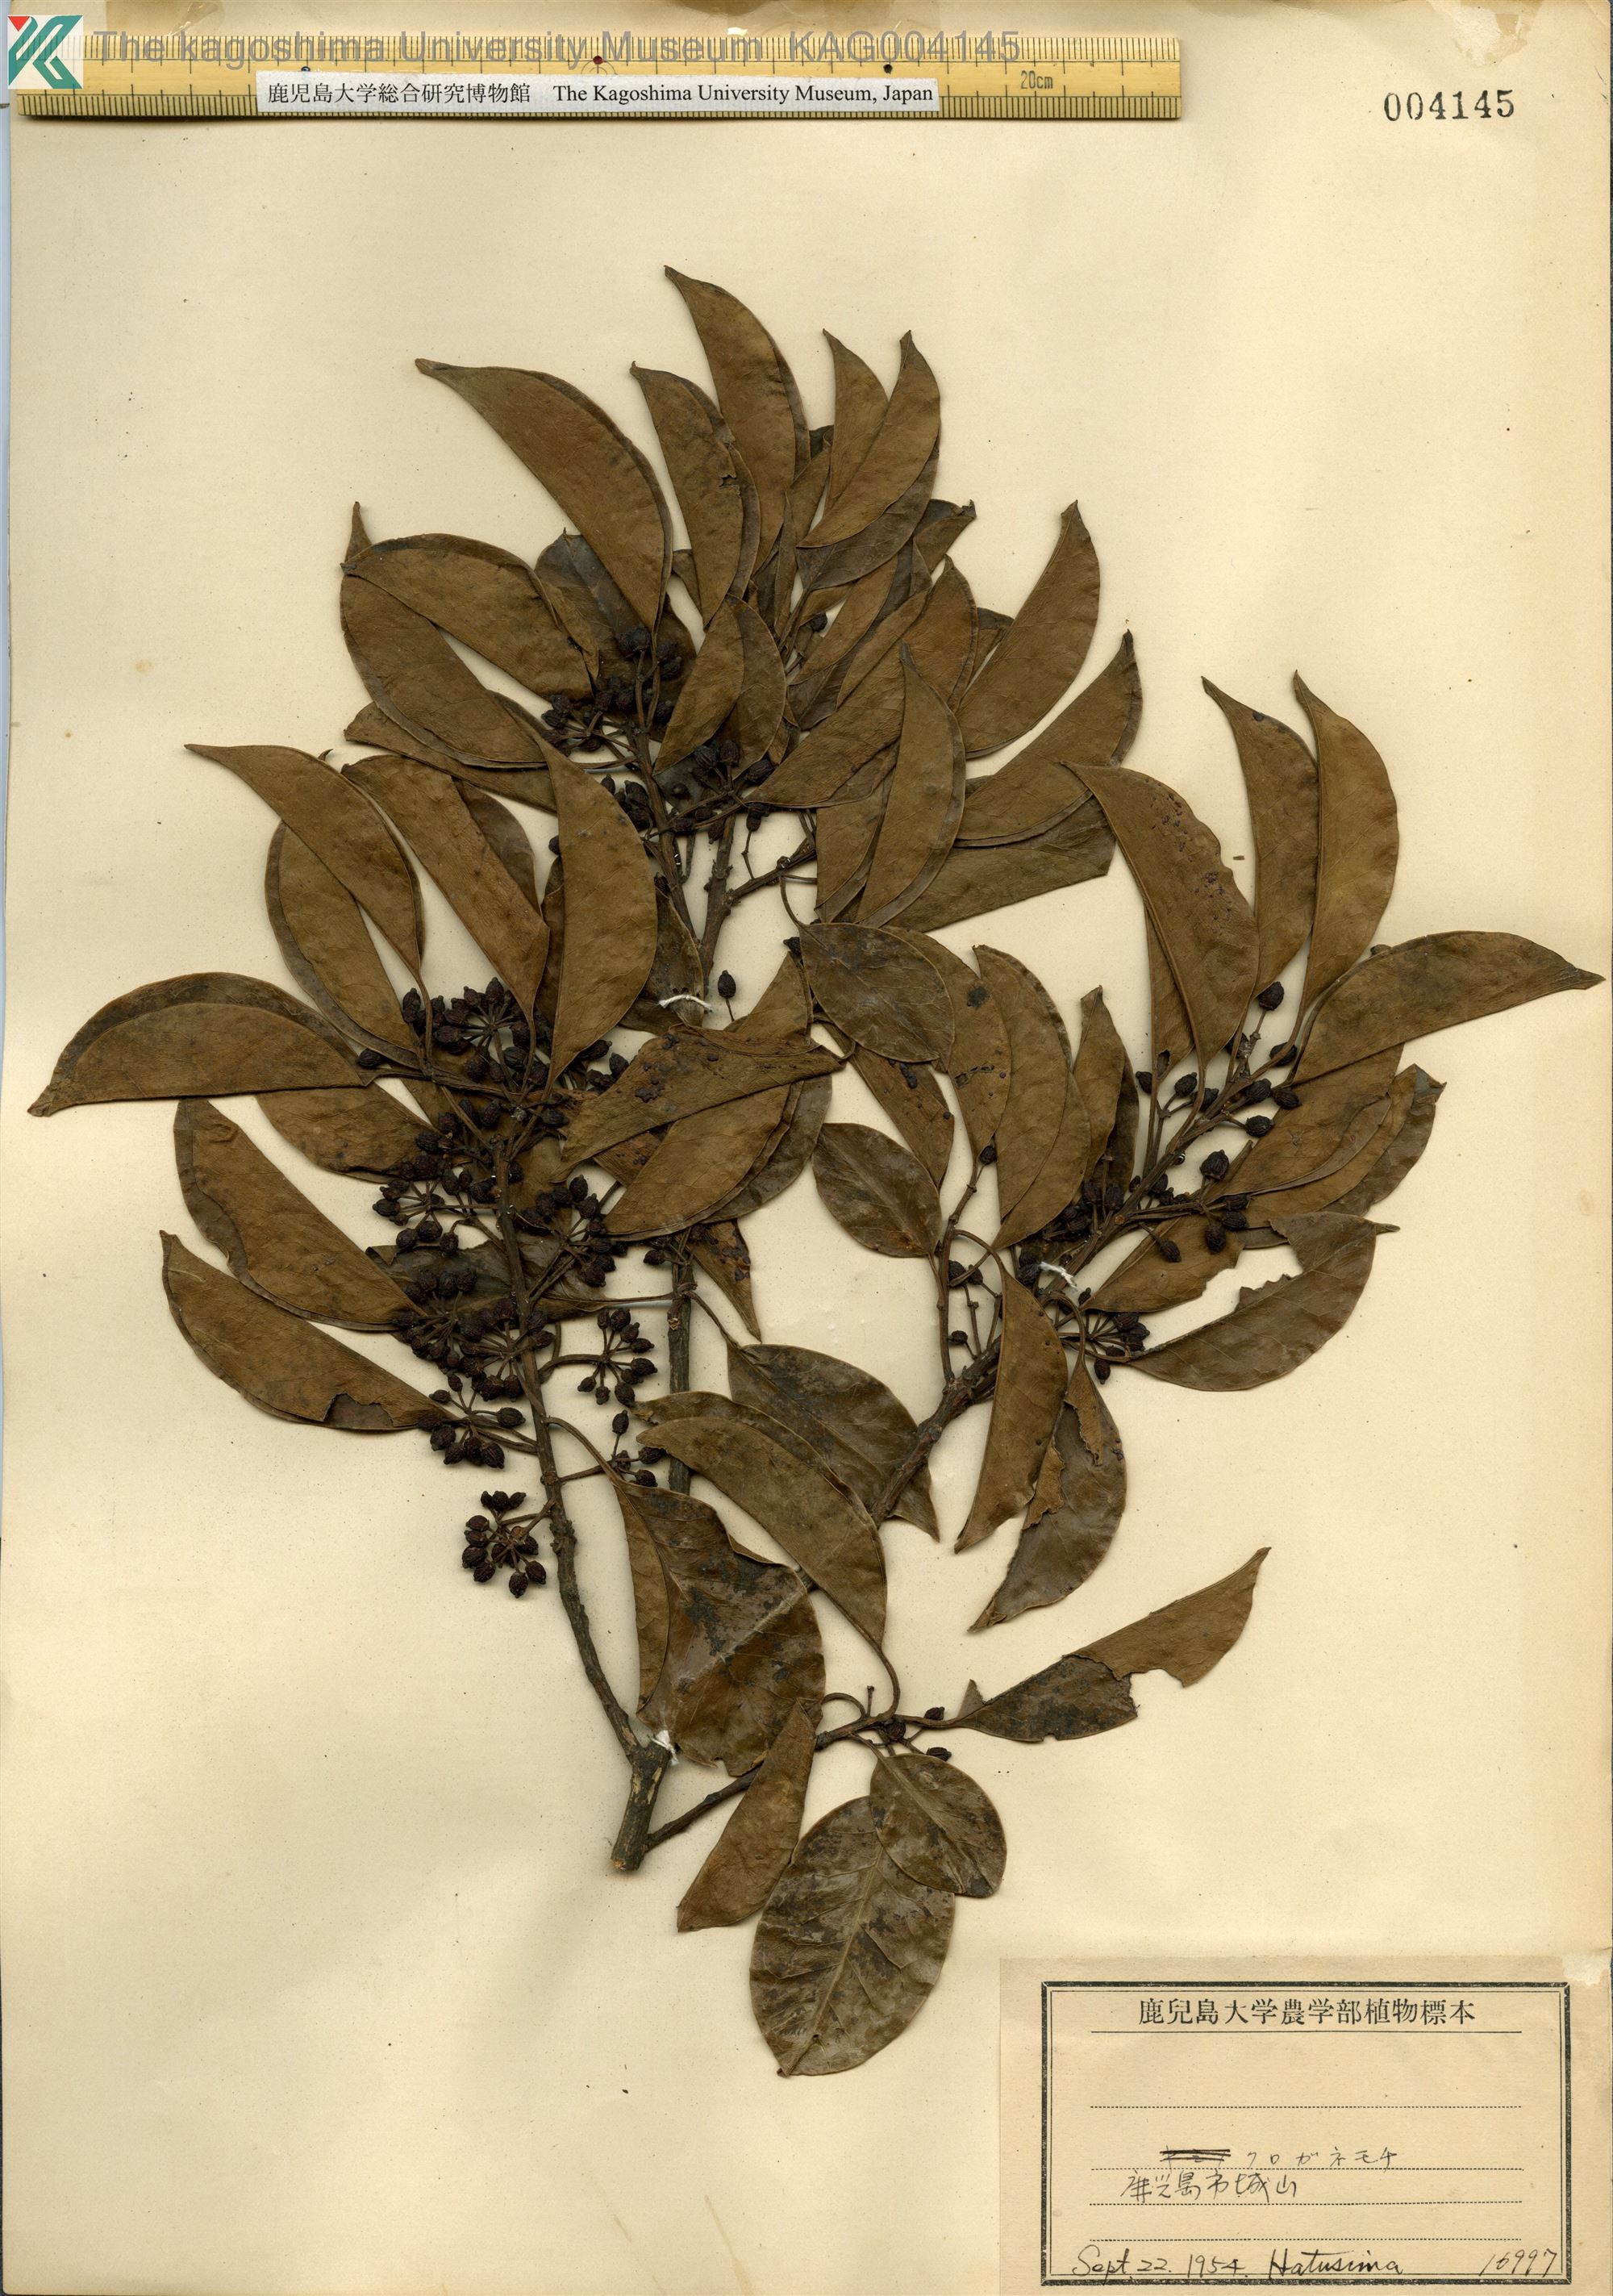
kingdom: Plantae
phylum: Tracheophyta
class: Magnoliopsida
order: Aquifoliales
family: Aquifoliaceae
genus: Ilex
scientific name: Ilex rotunda
